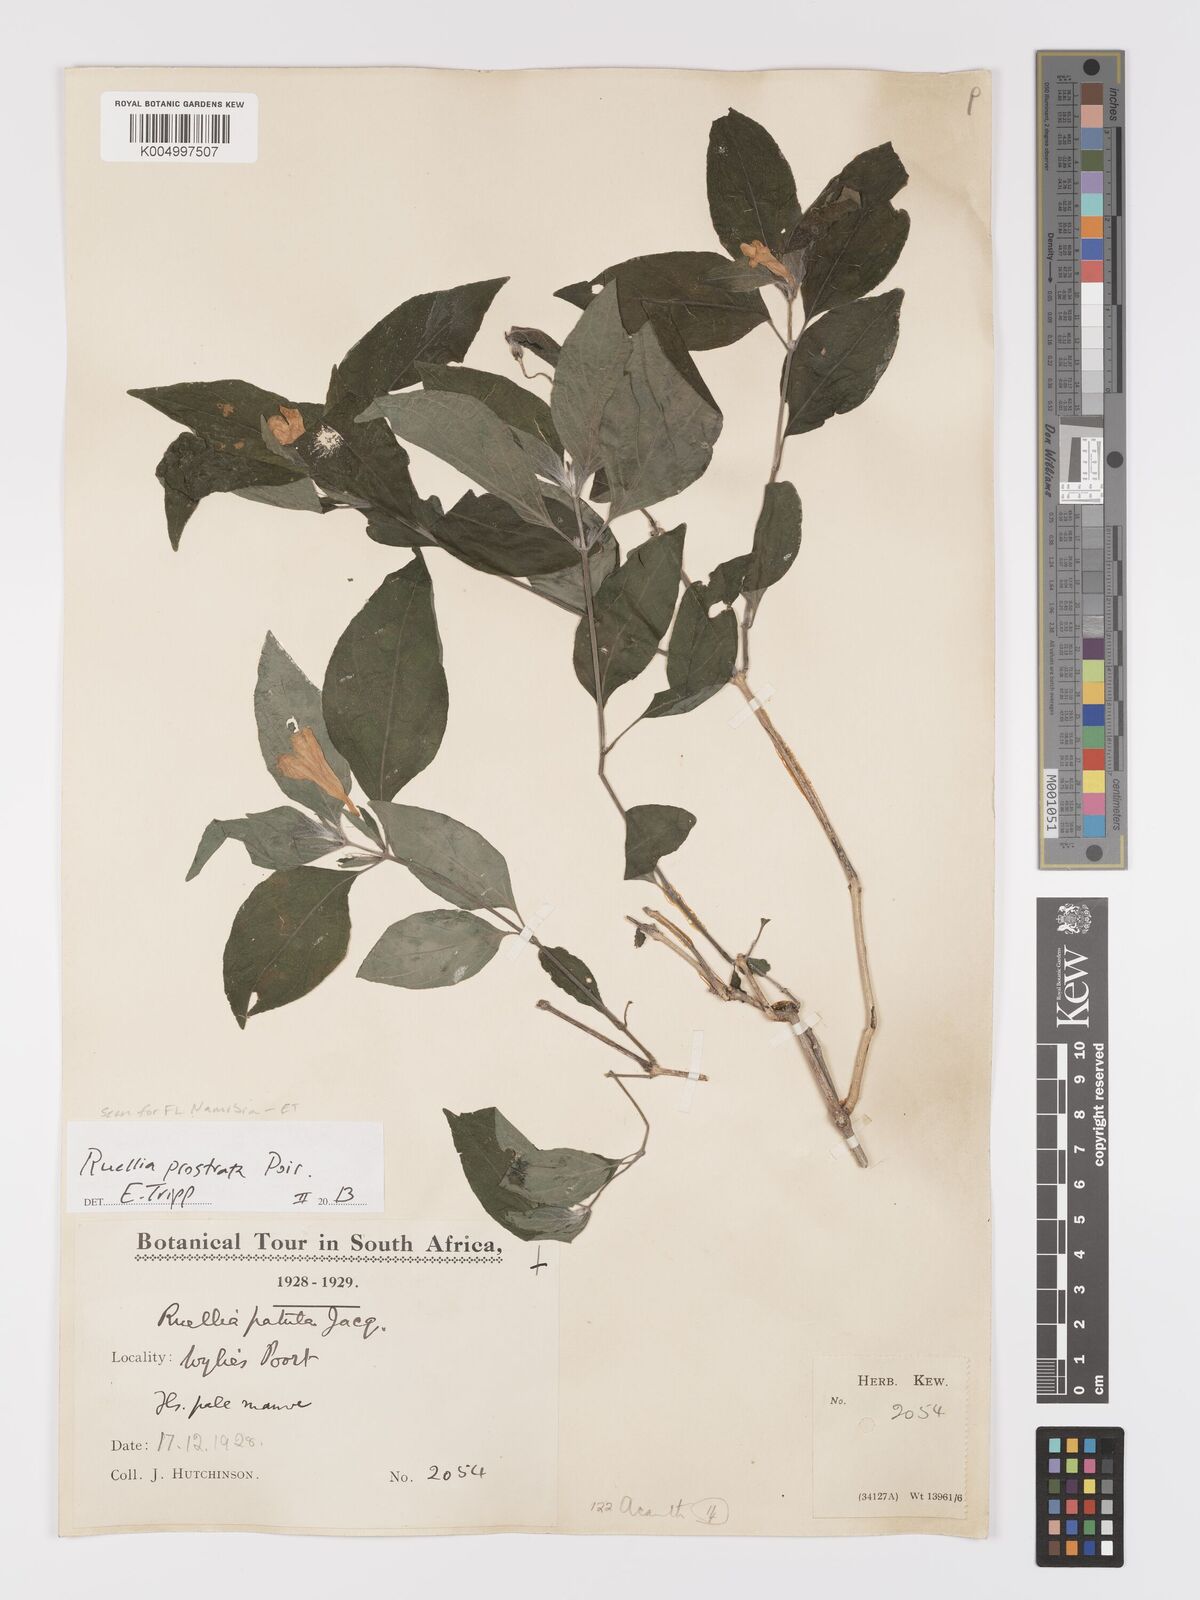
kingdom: Plantae
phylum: Tracheophyta
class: Magnoliopsida
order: Lamiales
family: Acanthaceae
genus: Ruellia
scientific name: Ruellia
